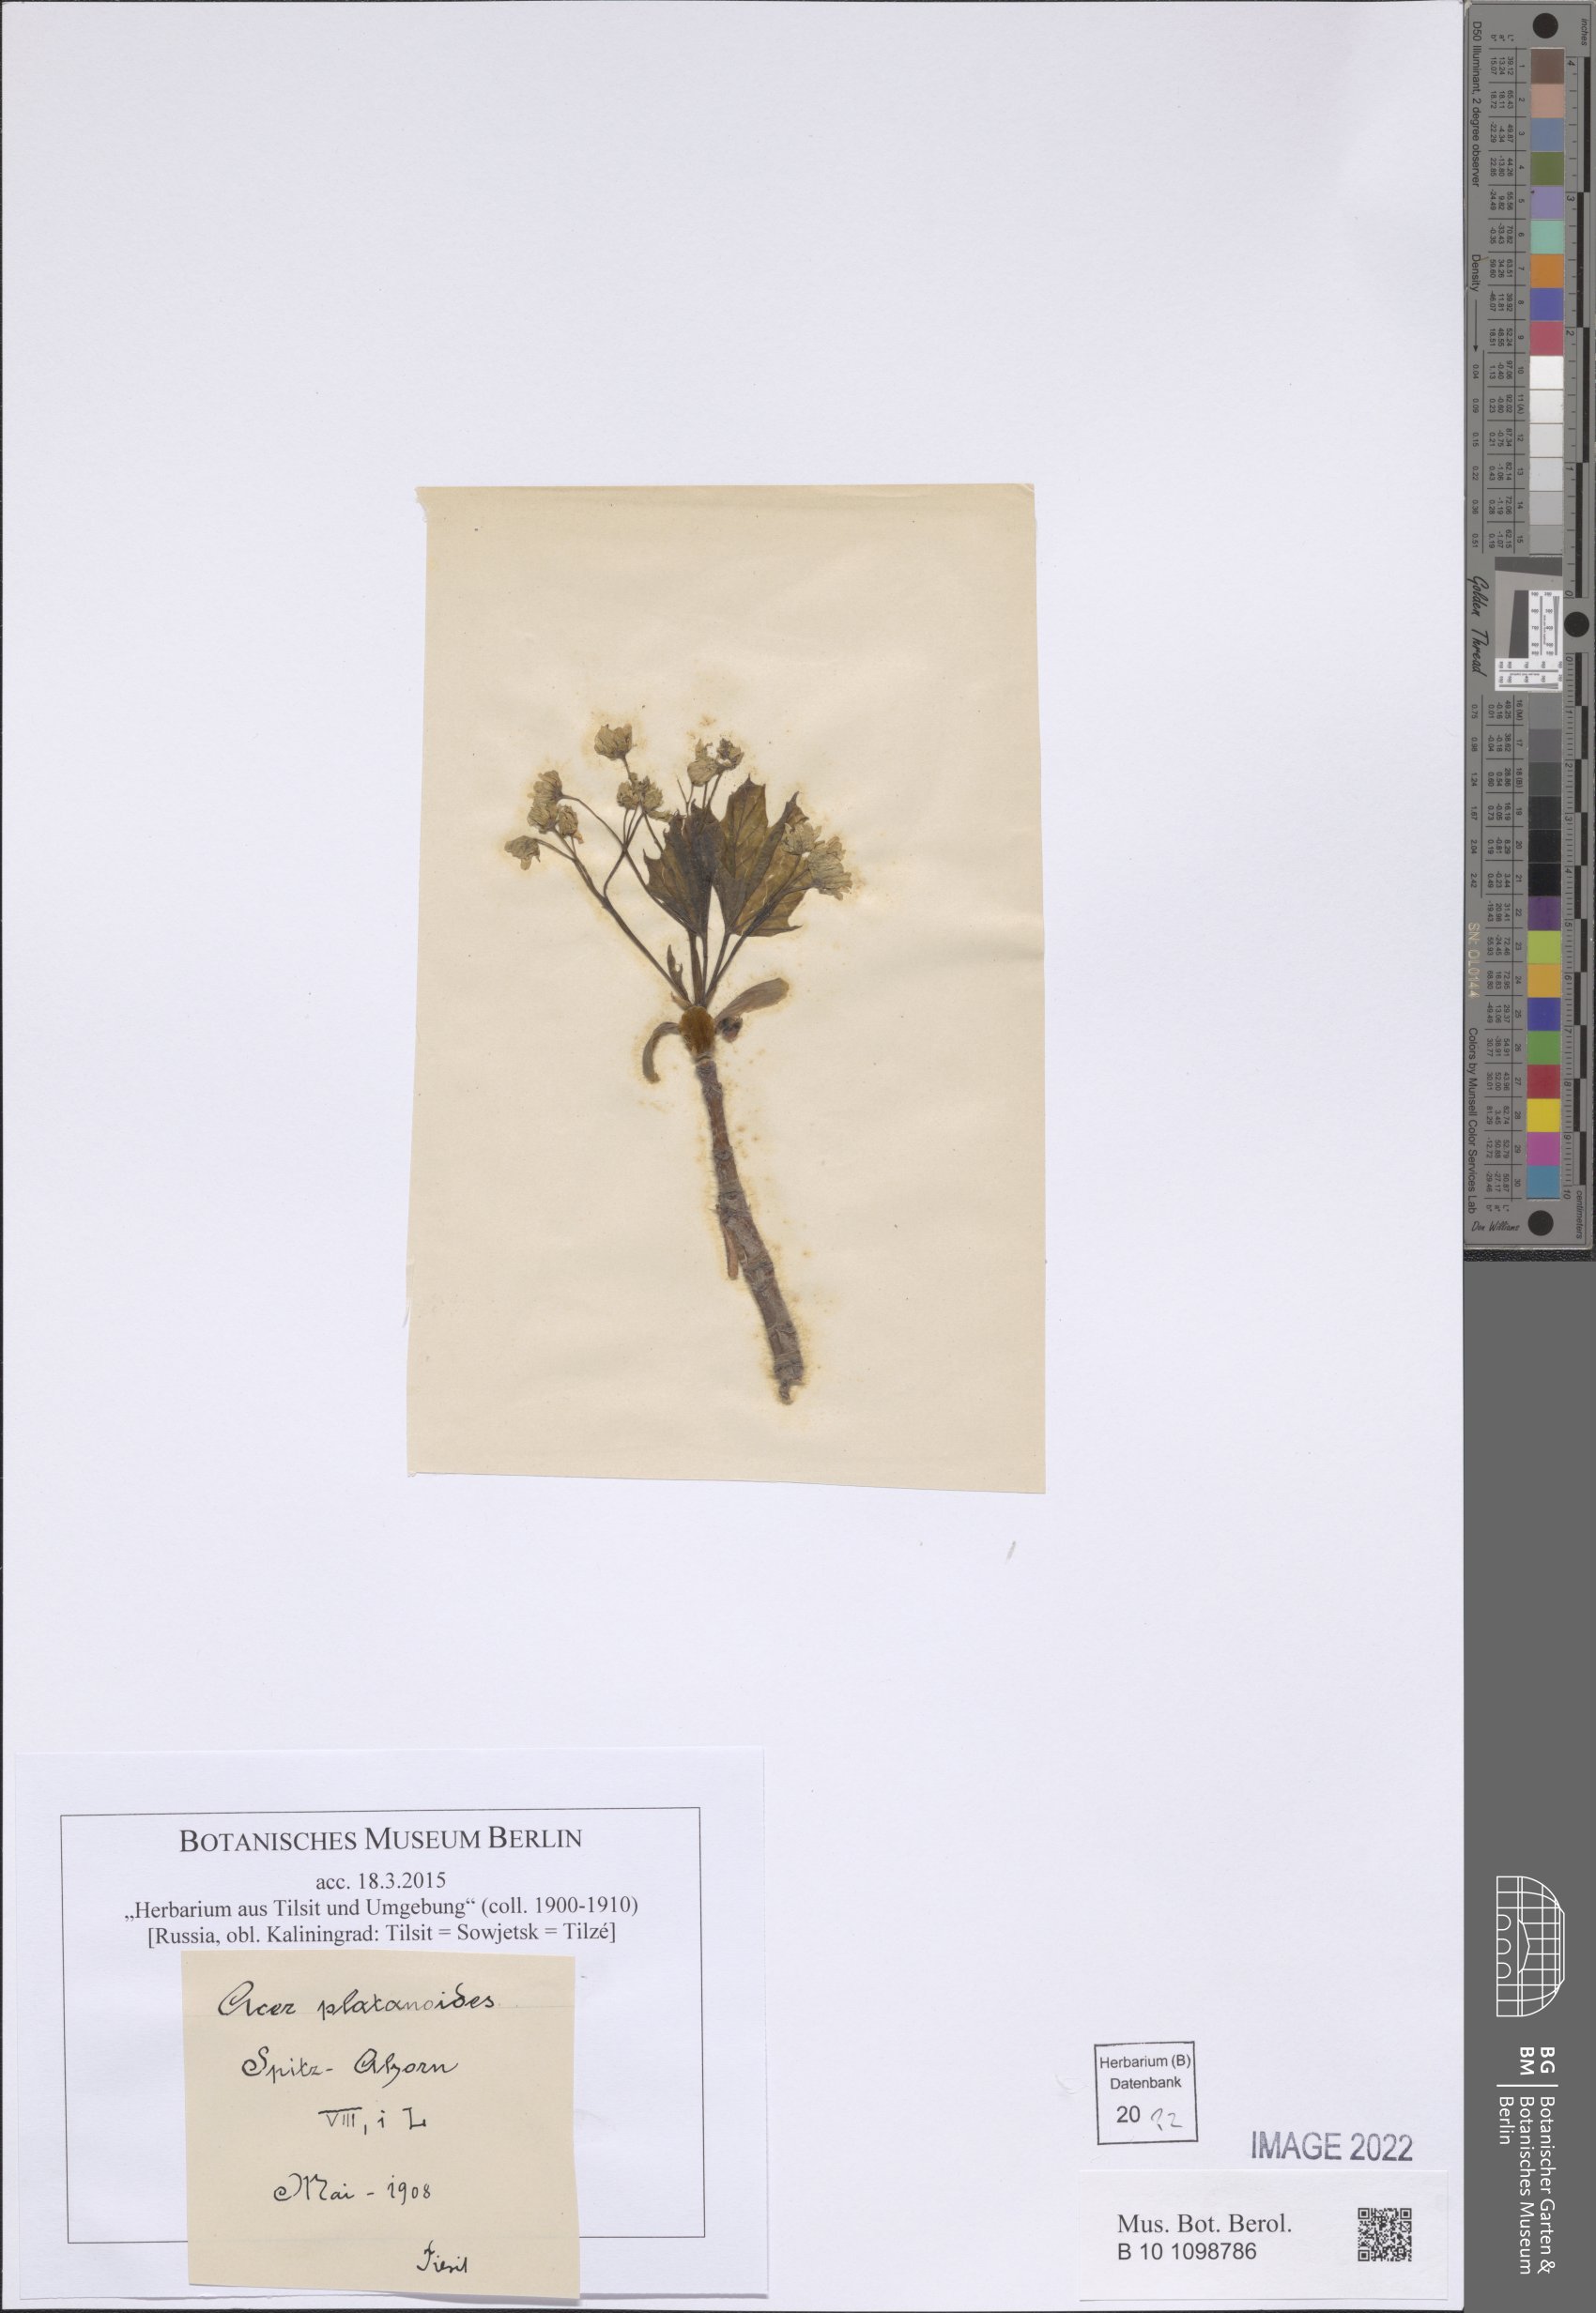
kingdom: Plantae
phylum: Tracheophyta
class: Magnoliopsida
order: Sapindales
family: Sapindaceae
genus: Acer
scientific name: Acer platanoides
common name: Norway maple
